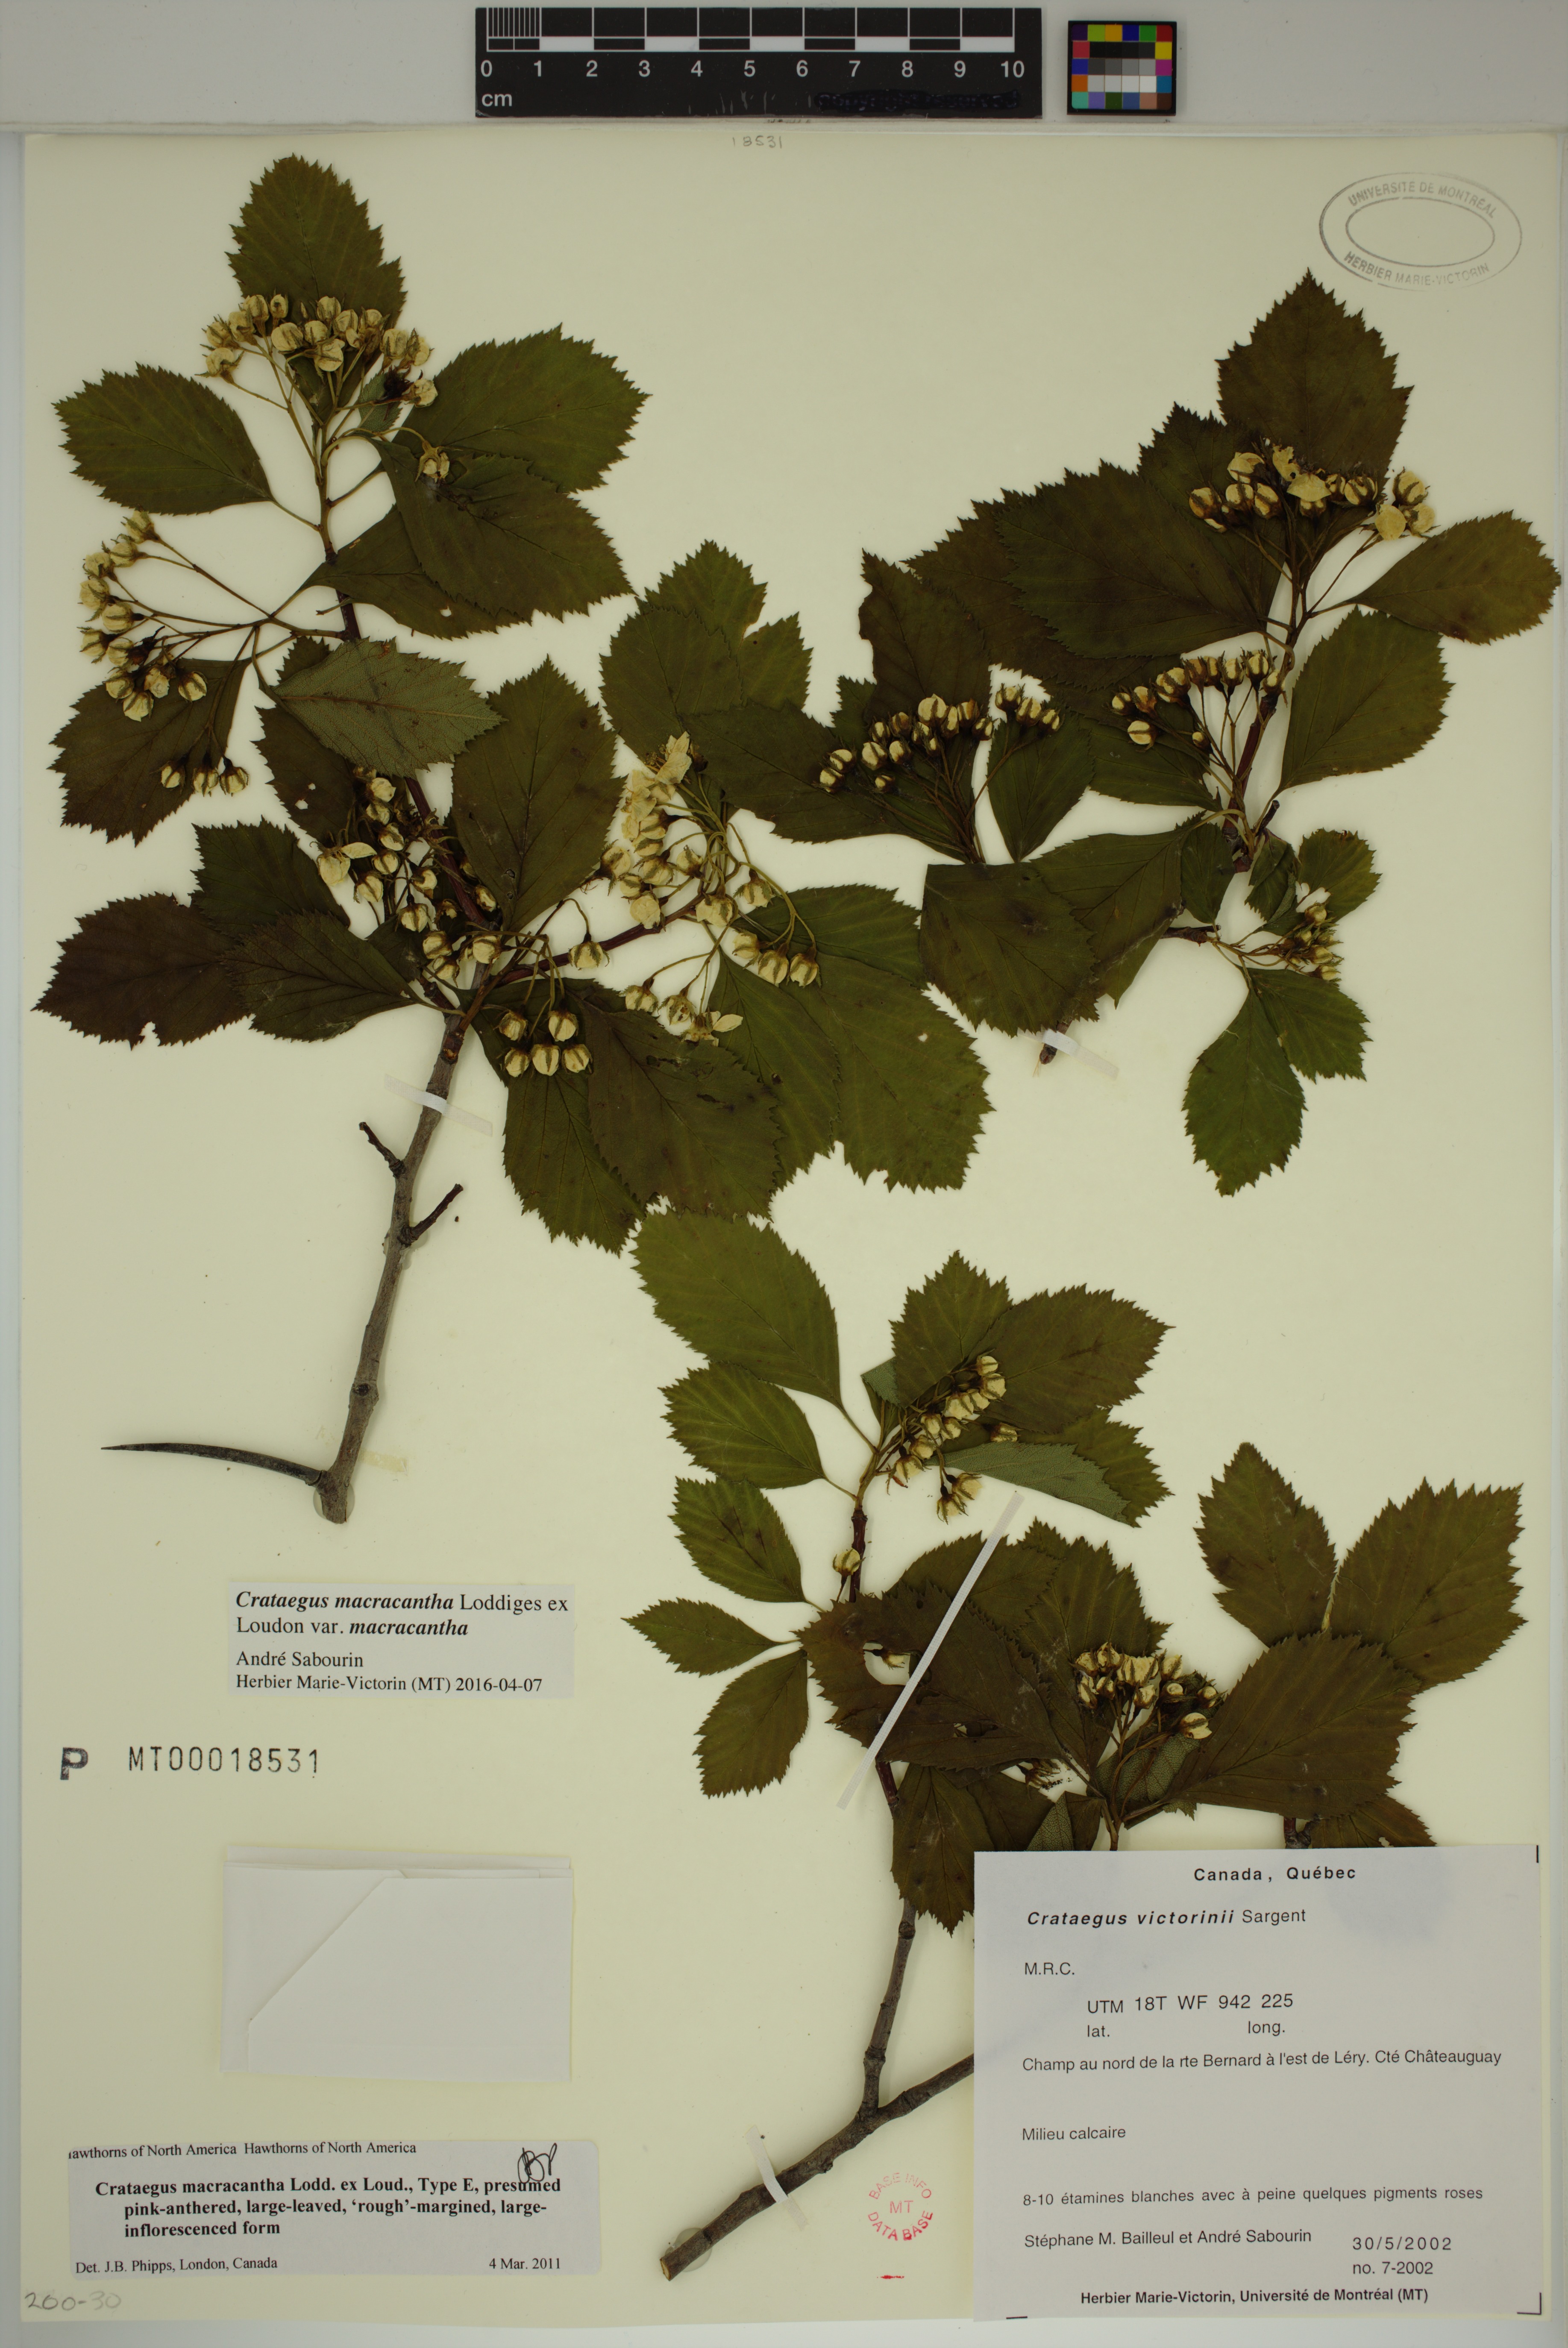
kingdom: Plantae
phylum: Tracheophyta
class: Magnoliopsida
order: Rosales
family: Rosaceae
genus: Crataegus
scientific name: Crataegus macracantha
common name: Large-thorn hawthorn
